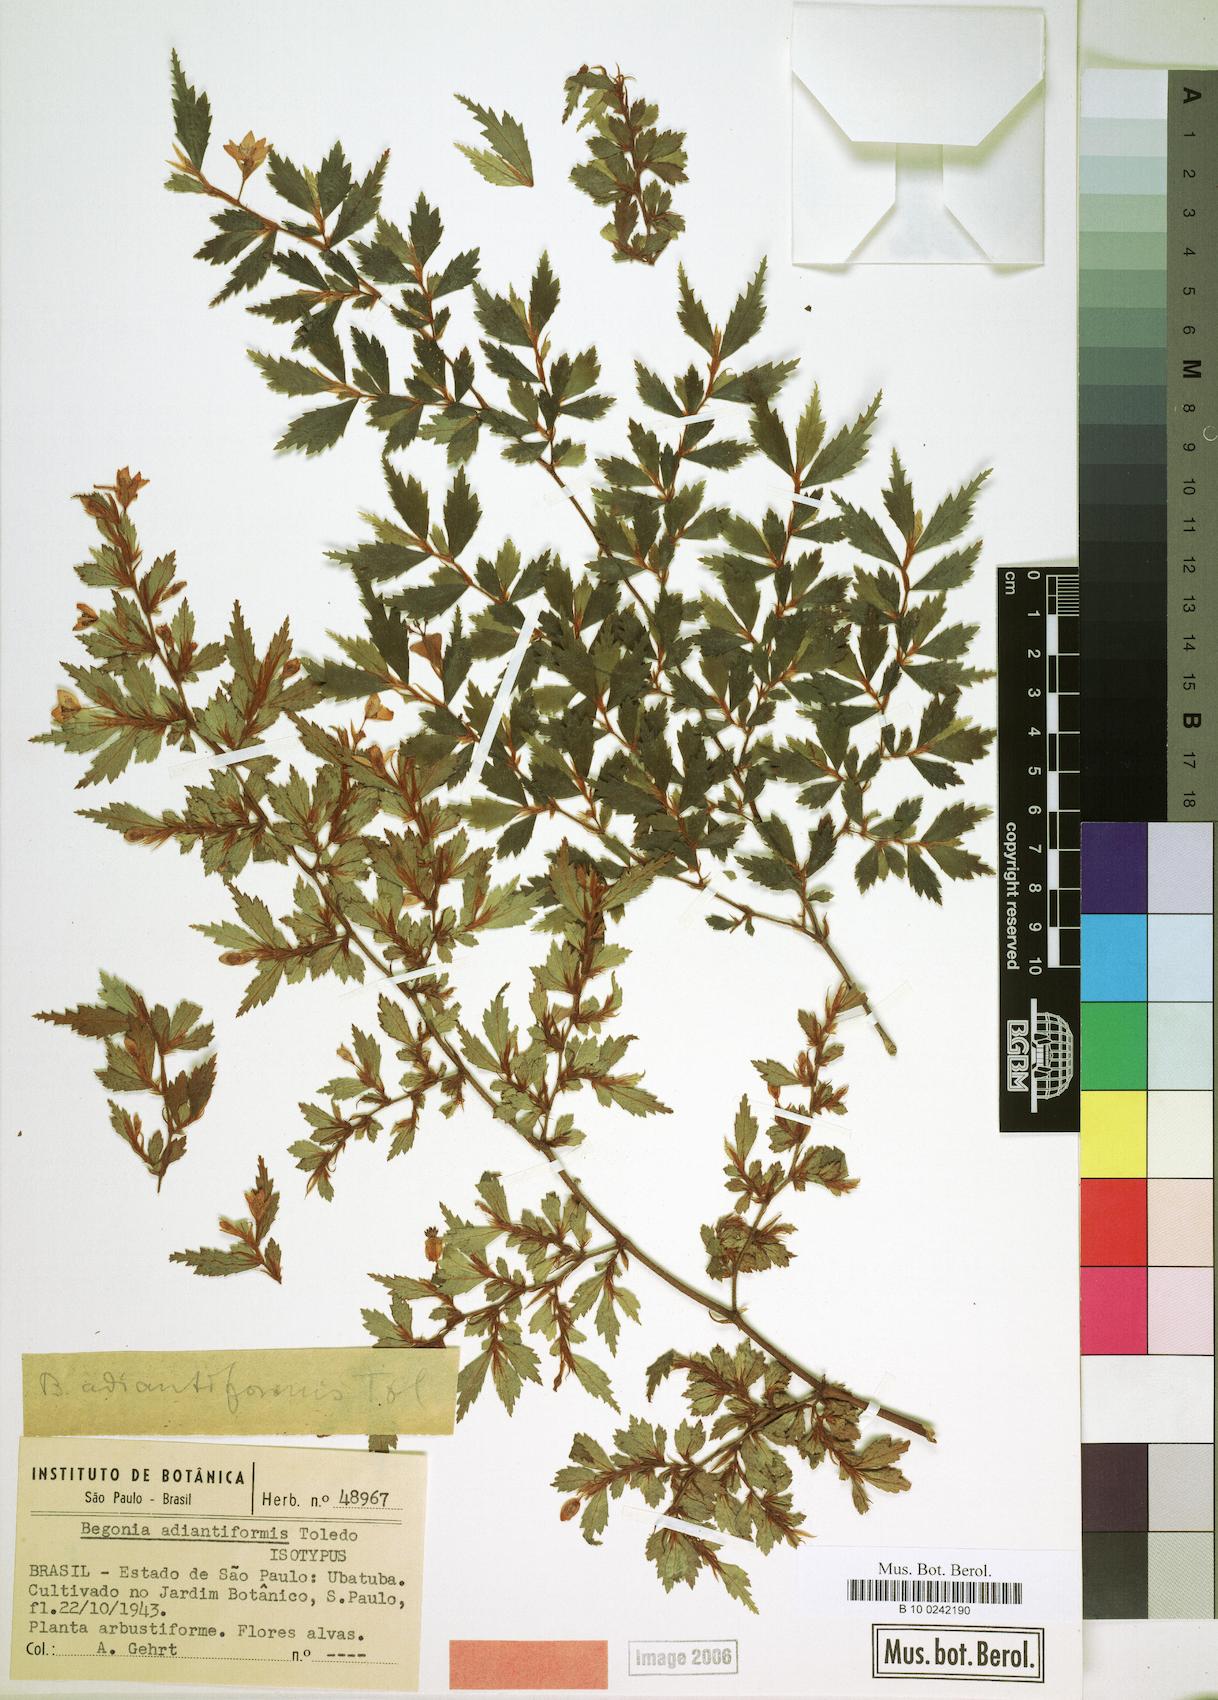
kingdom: Plantae
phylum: Tracheophyta
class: Magnoliopsida
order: Cucurbitales
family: Begoniaceae
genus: Begonia
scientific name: Begonia itatinensis
